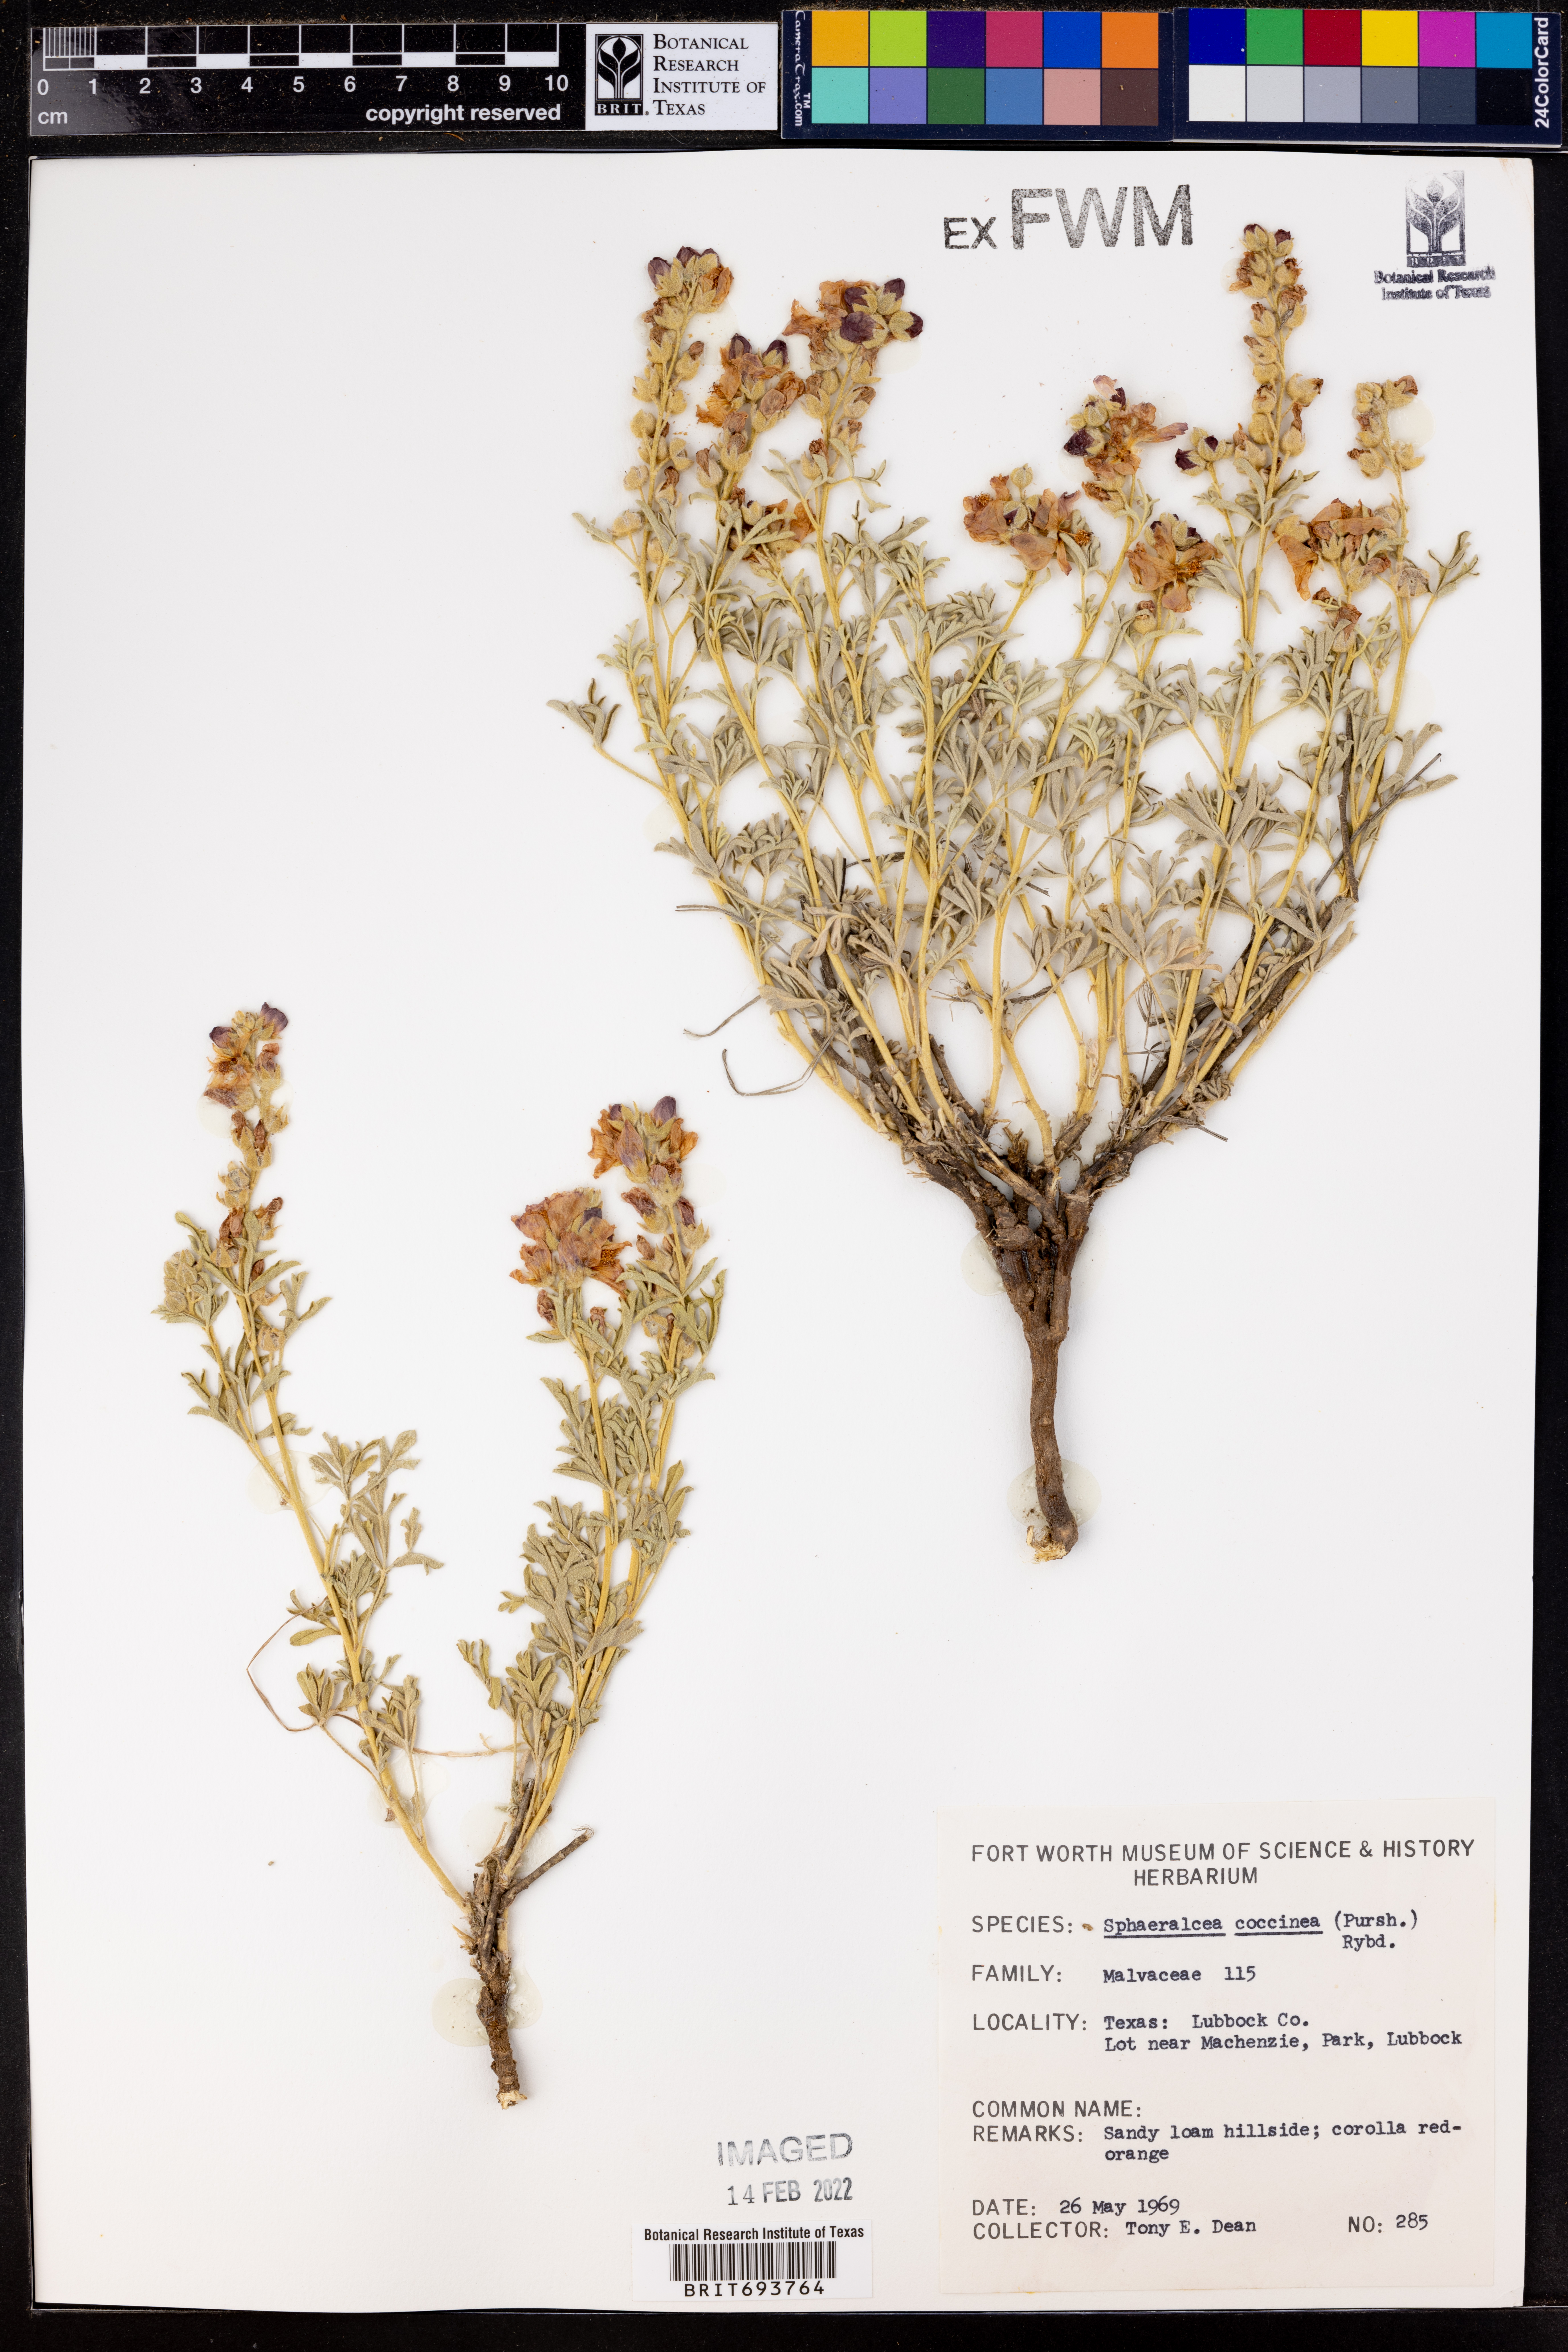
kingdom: Plantae
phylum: Tracheophyta
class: Magnoliopsida
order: Malvales
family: Malvaceae
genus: Sphaeralcea
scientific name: Sphaeralcea coccinea
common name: Moss-rose
